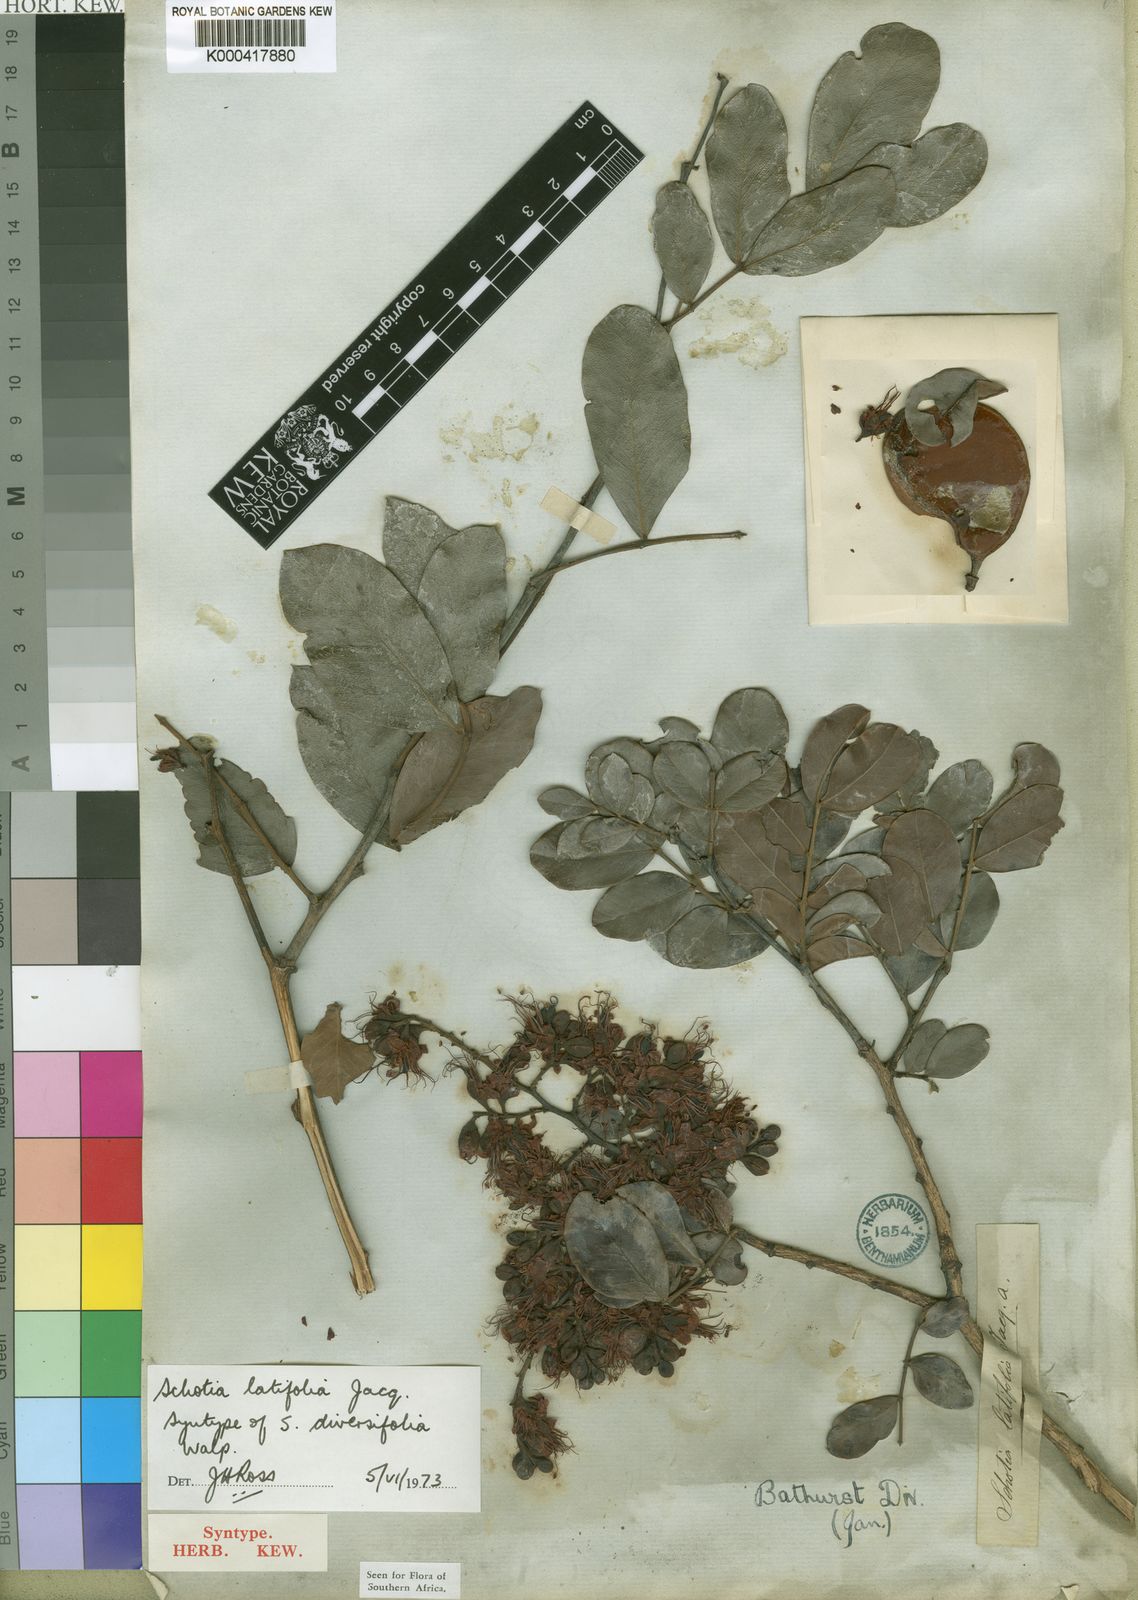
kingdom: Plantae
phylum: Tracheophyta
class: Magnoliopsida
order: Fabales
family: Fabaceae
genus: Schotia
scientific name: Schotia latifolia
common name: Bush boer-bean
